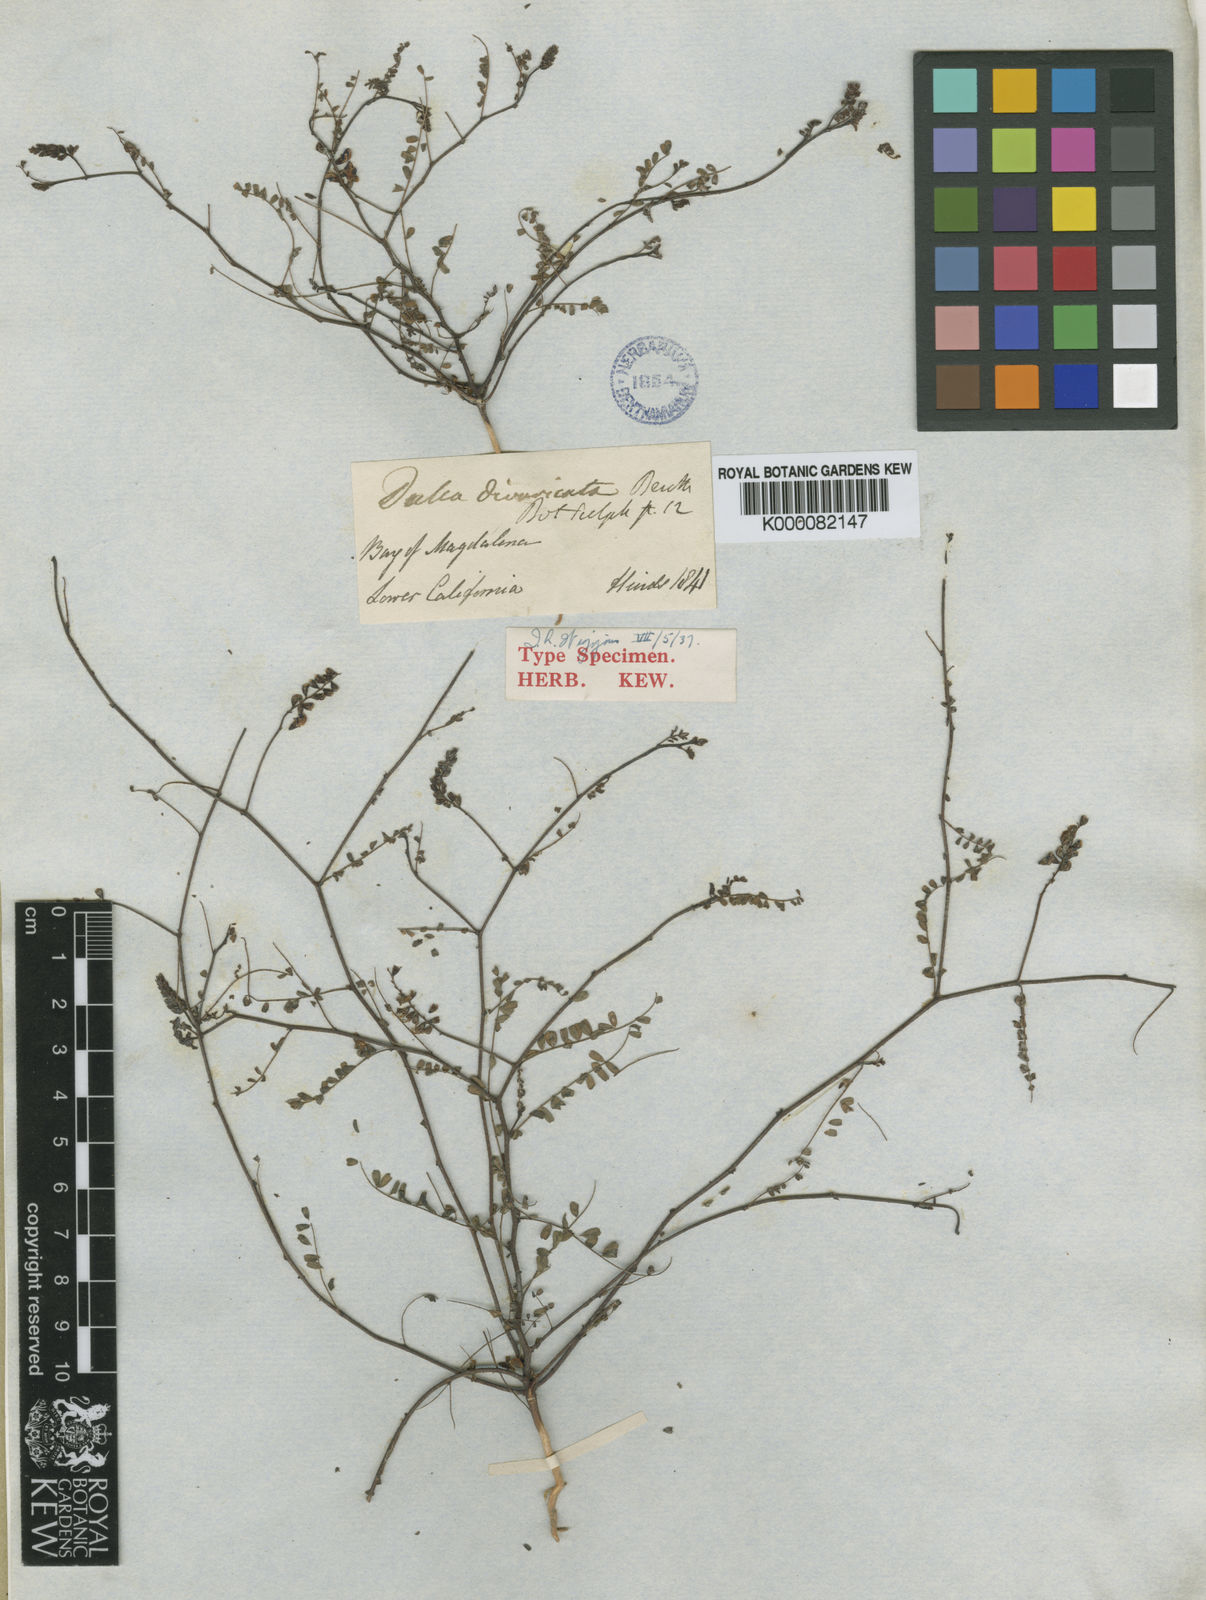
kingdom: Plantae
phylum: Tracheophyta
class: Magnoliopsida
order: Fabales
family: Fabaceae
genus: Marina
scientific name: Marina divaricata
